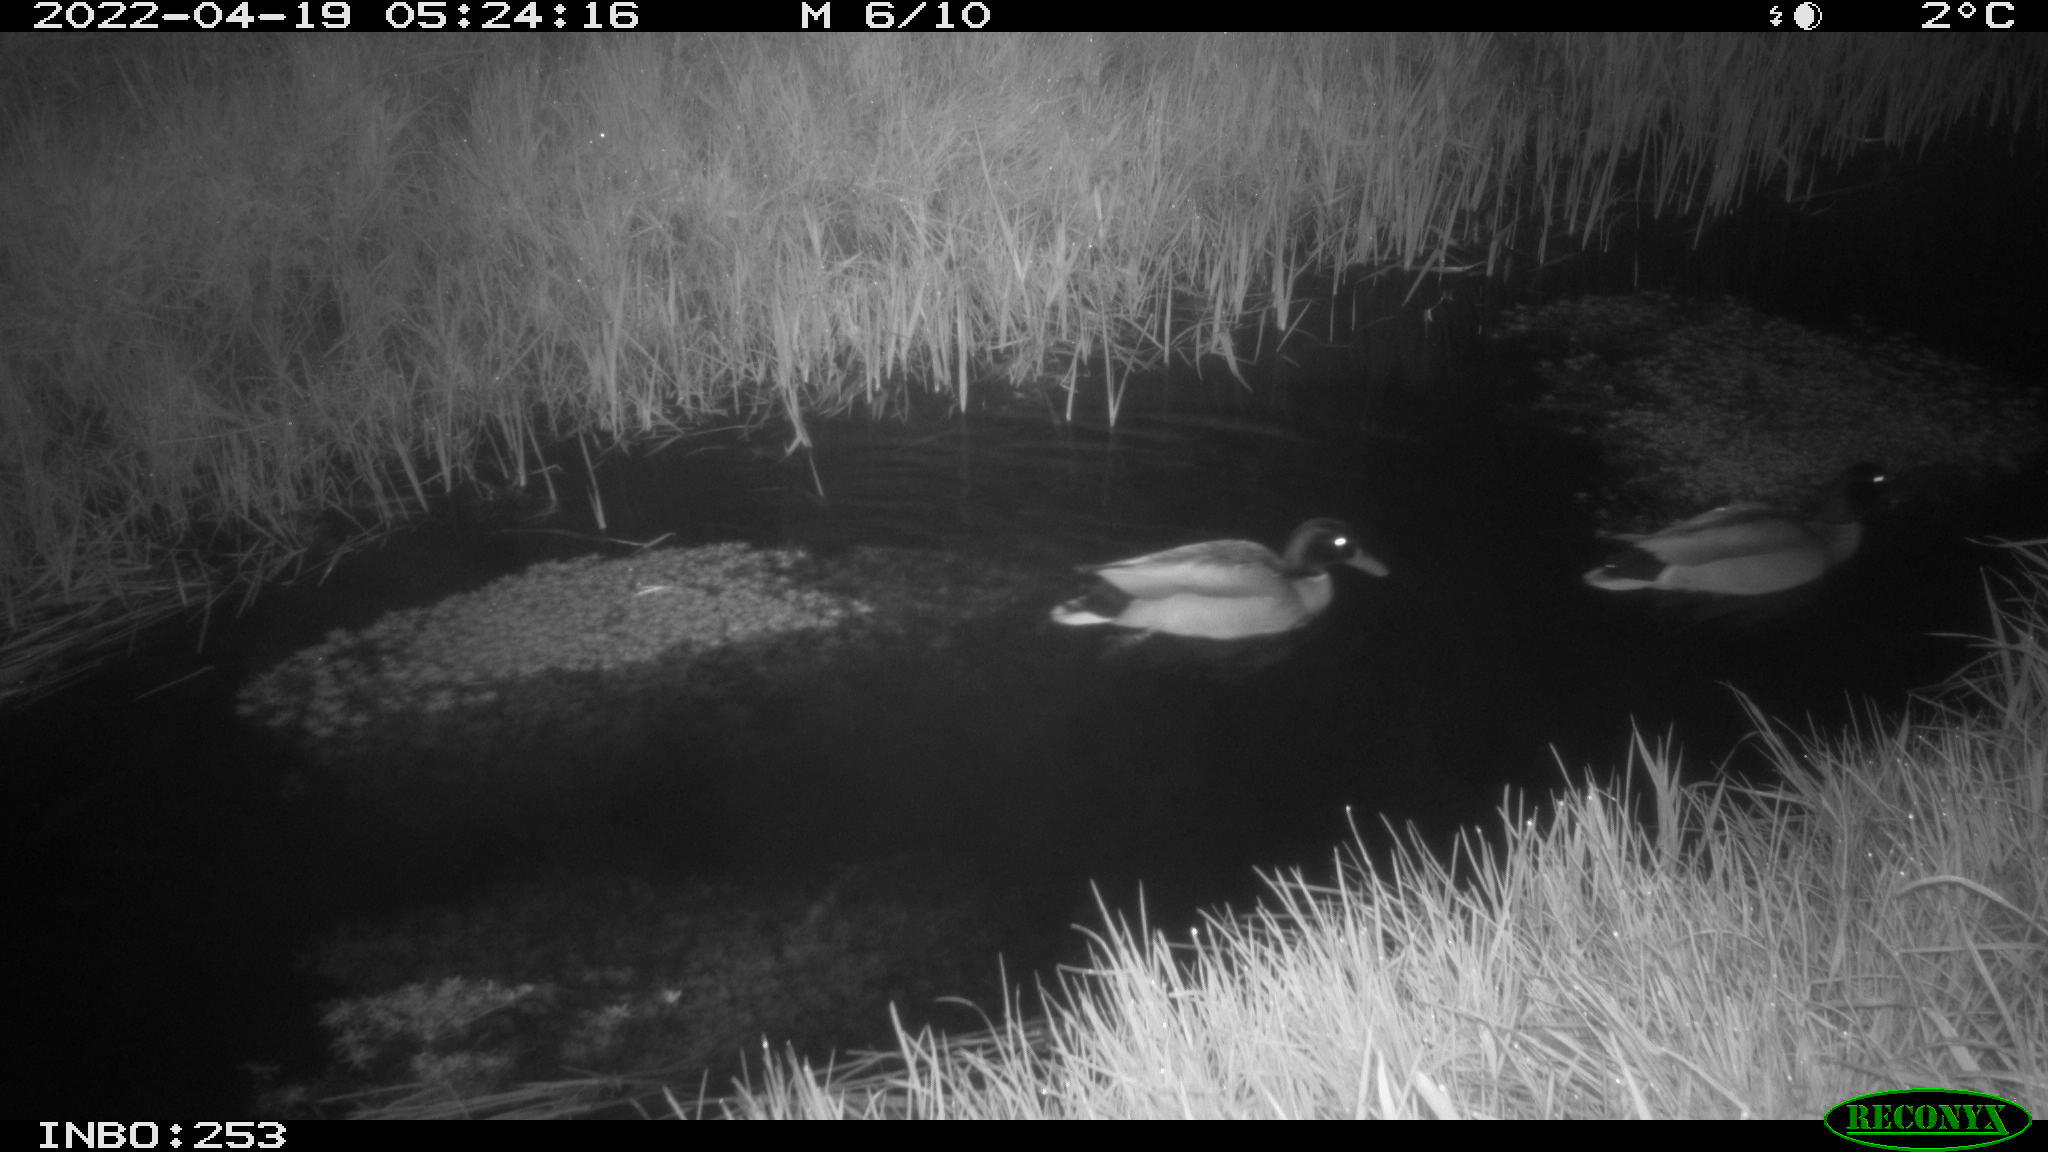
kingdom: Animalia
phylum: Chordata
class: Aves
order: Anseriformes
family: Anatidae
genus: Anas
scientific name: Anas platyrhynchos
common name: Mallard
